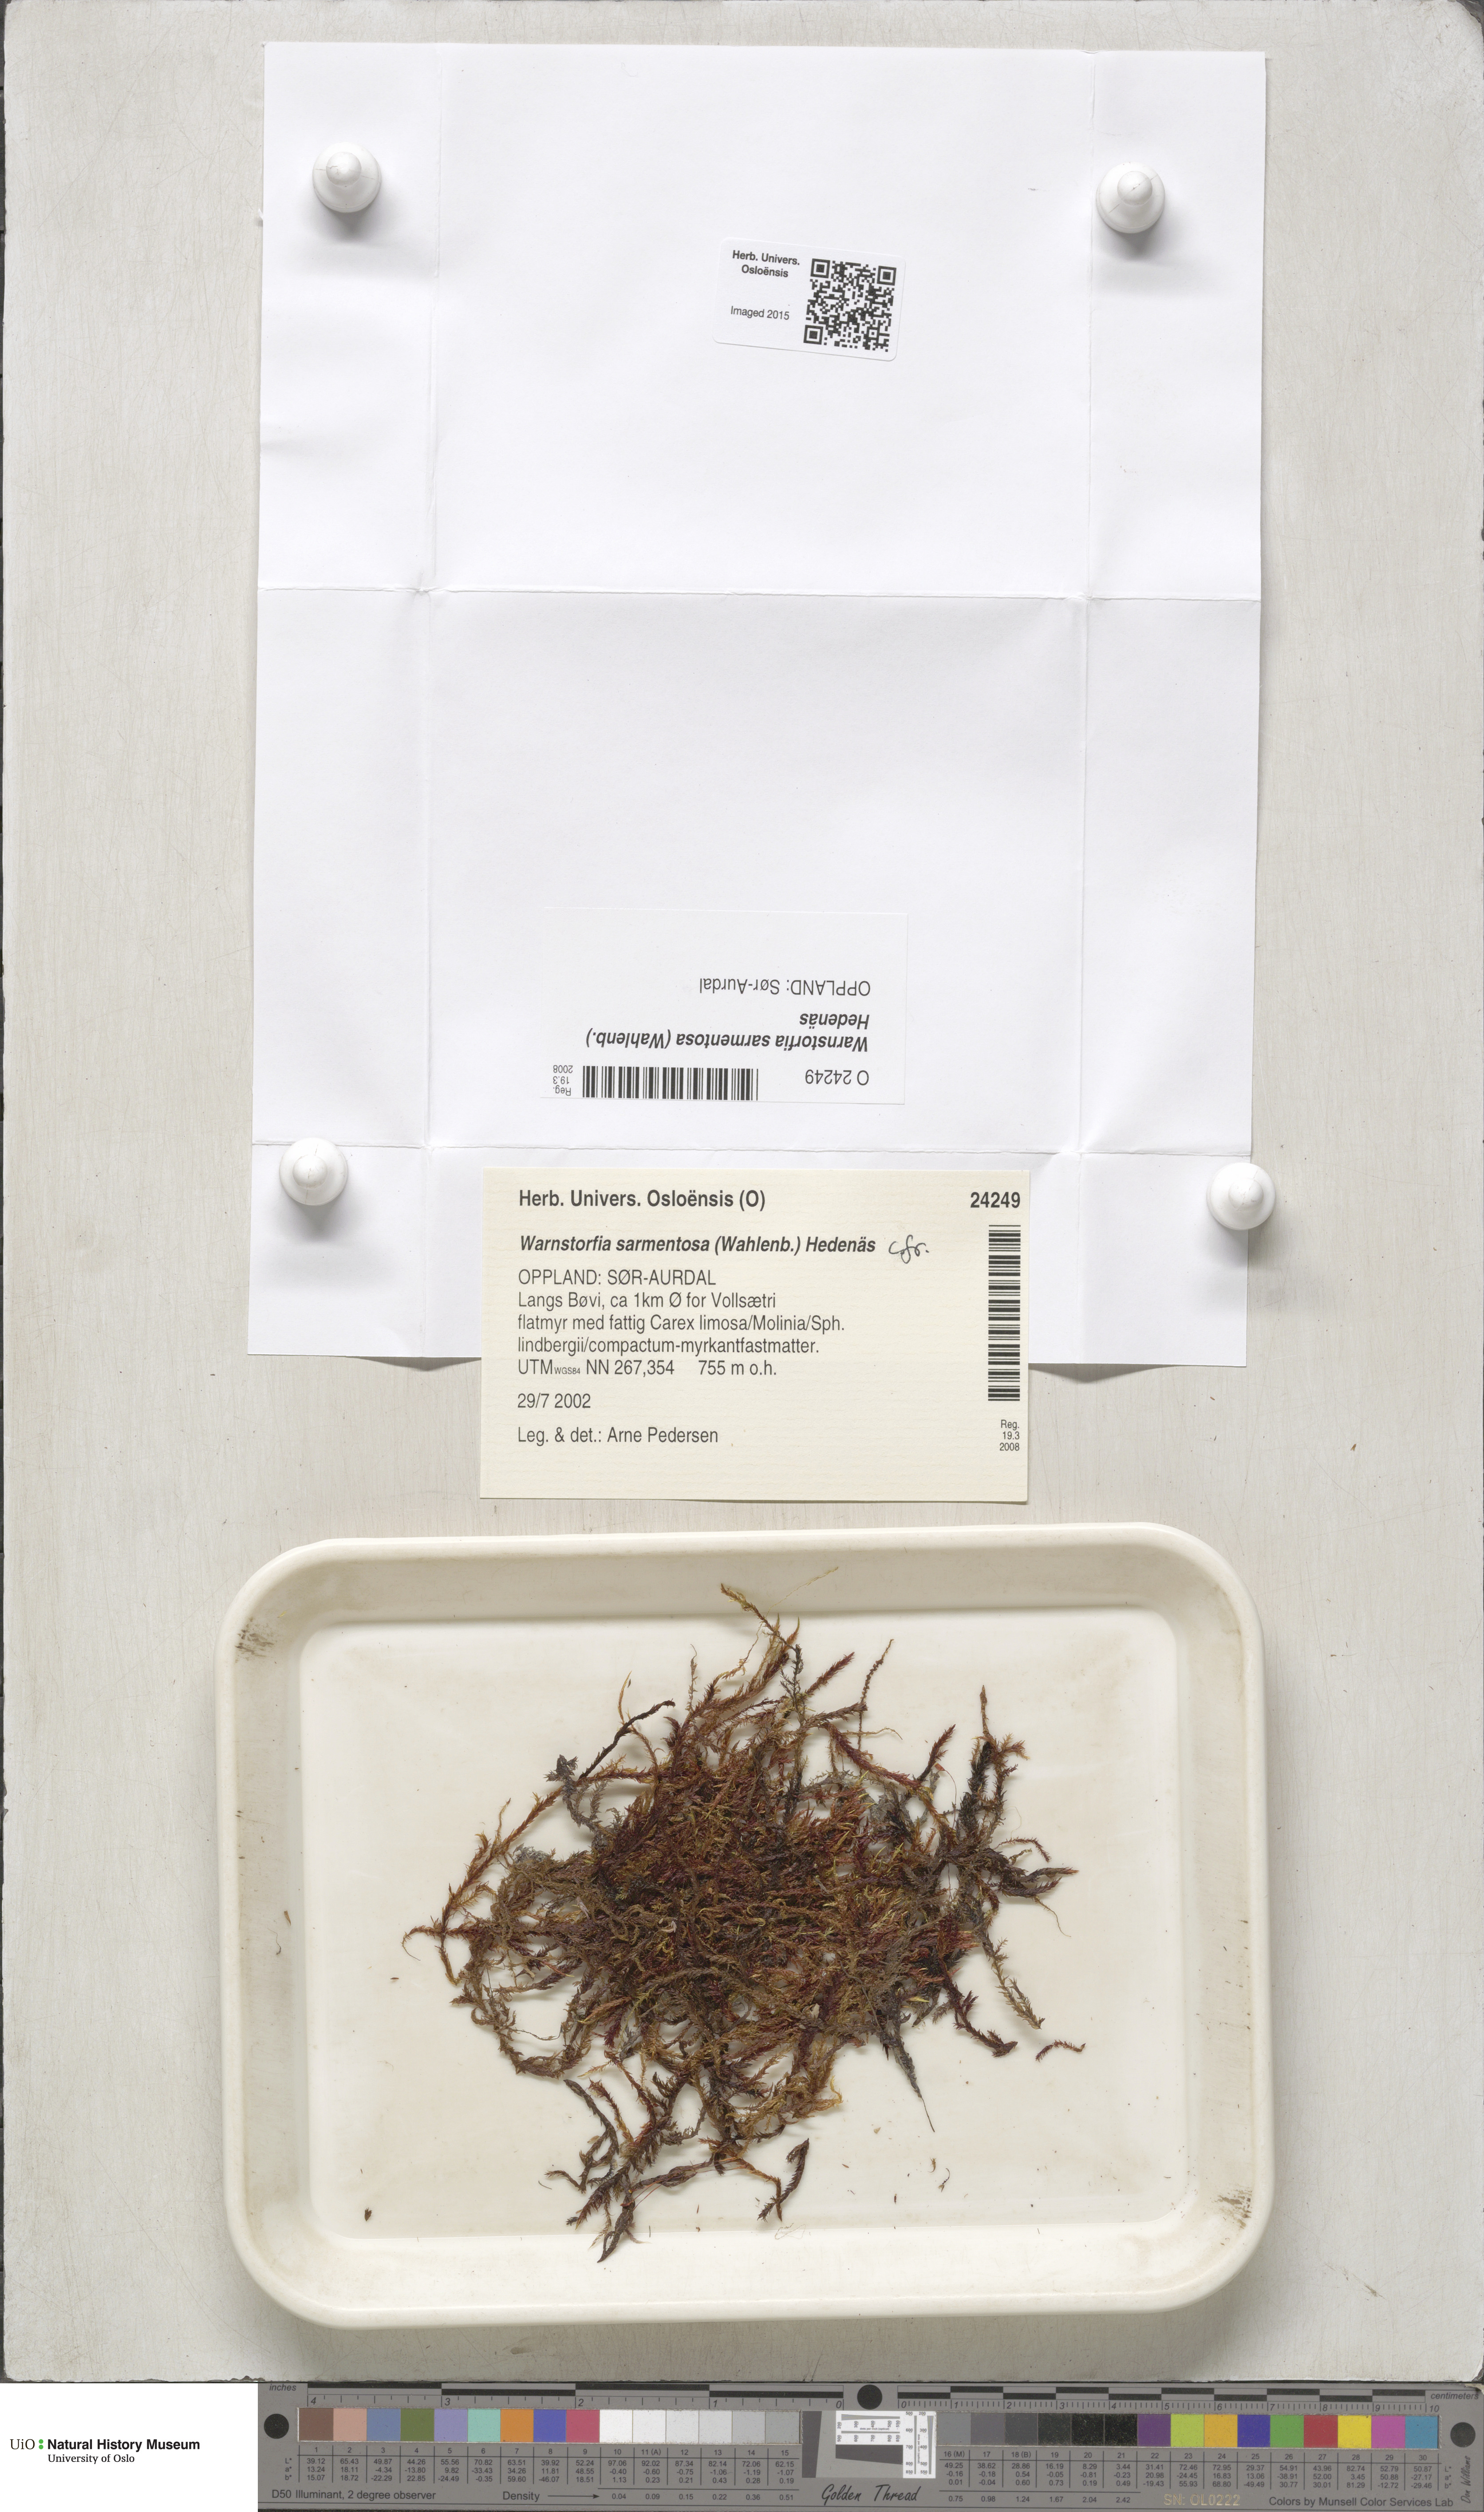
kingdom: Plantae
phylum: Bryophyta
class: Bryopsida
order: Hypnales
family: Calliergonaceae
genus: Sarmentypnum
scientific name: Sarmentypnum sarmentosum
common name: Twiggy spoon moss
